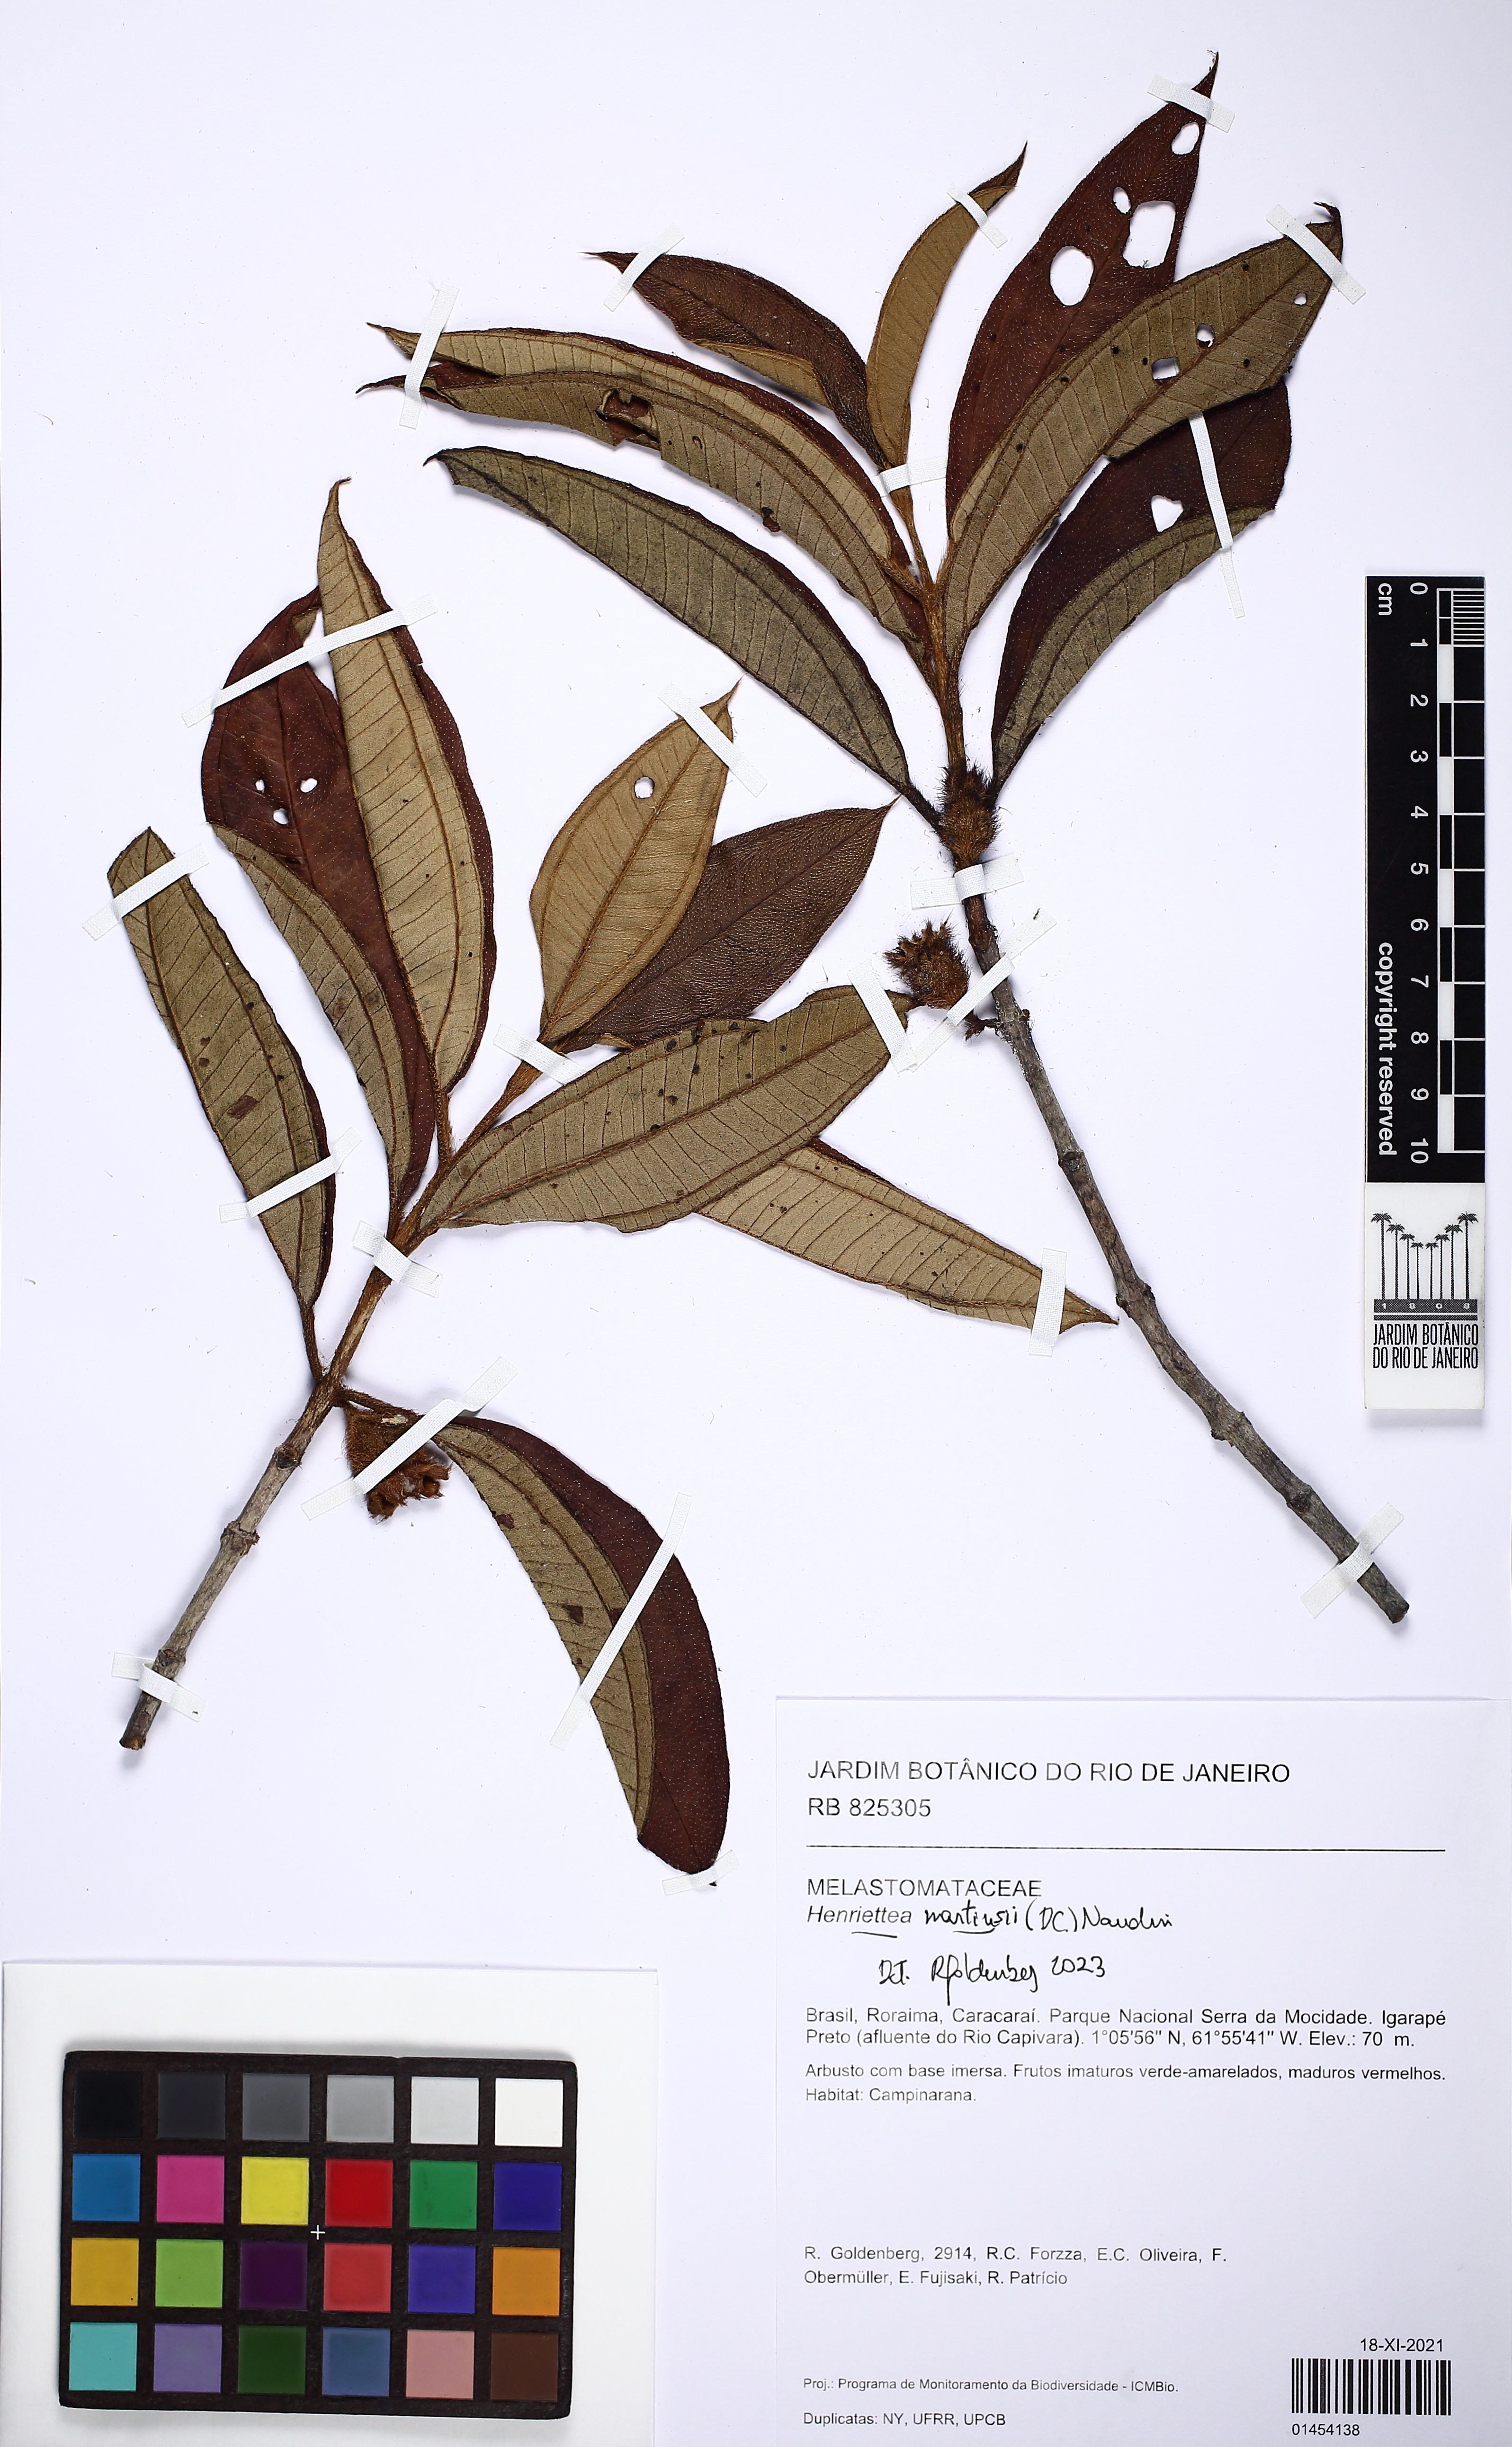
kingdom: Plantae
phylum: Tracheophyta
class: Magnoliopsida
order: Myrtales
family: Melastomataceae
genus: Henriettea
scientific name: Henriettea martiusii
